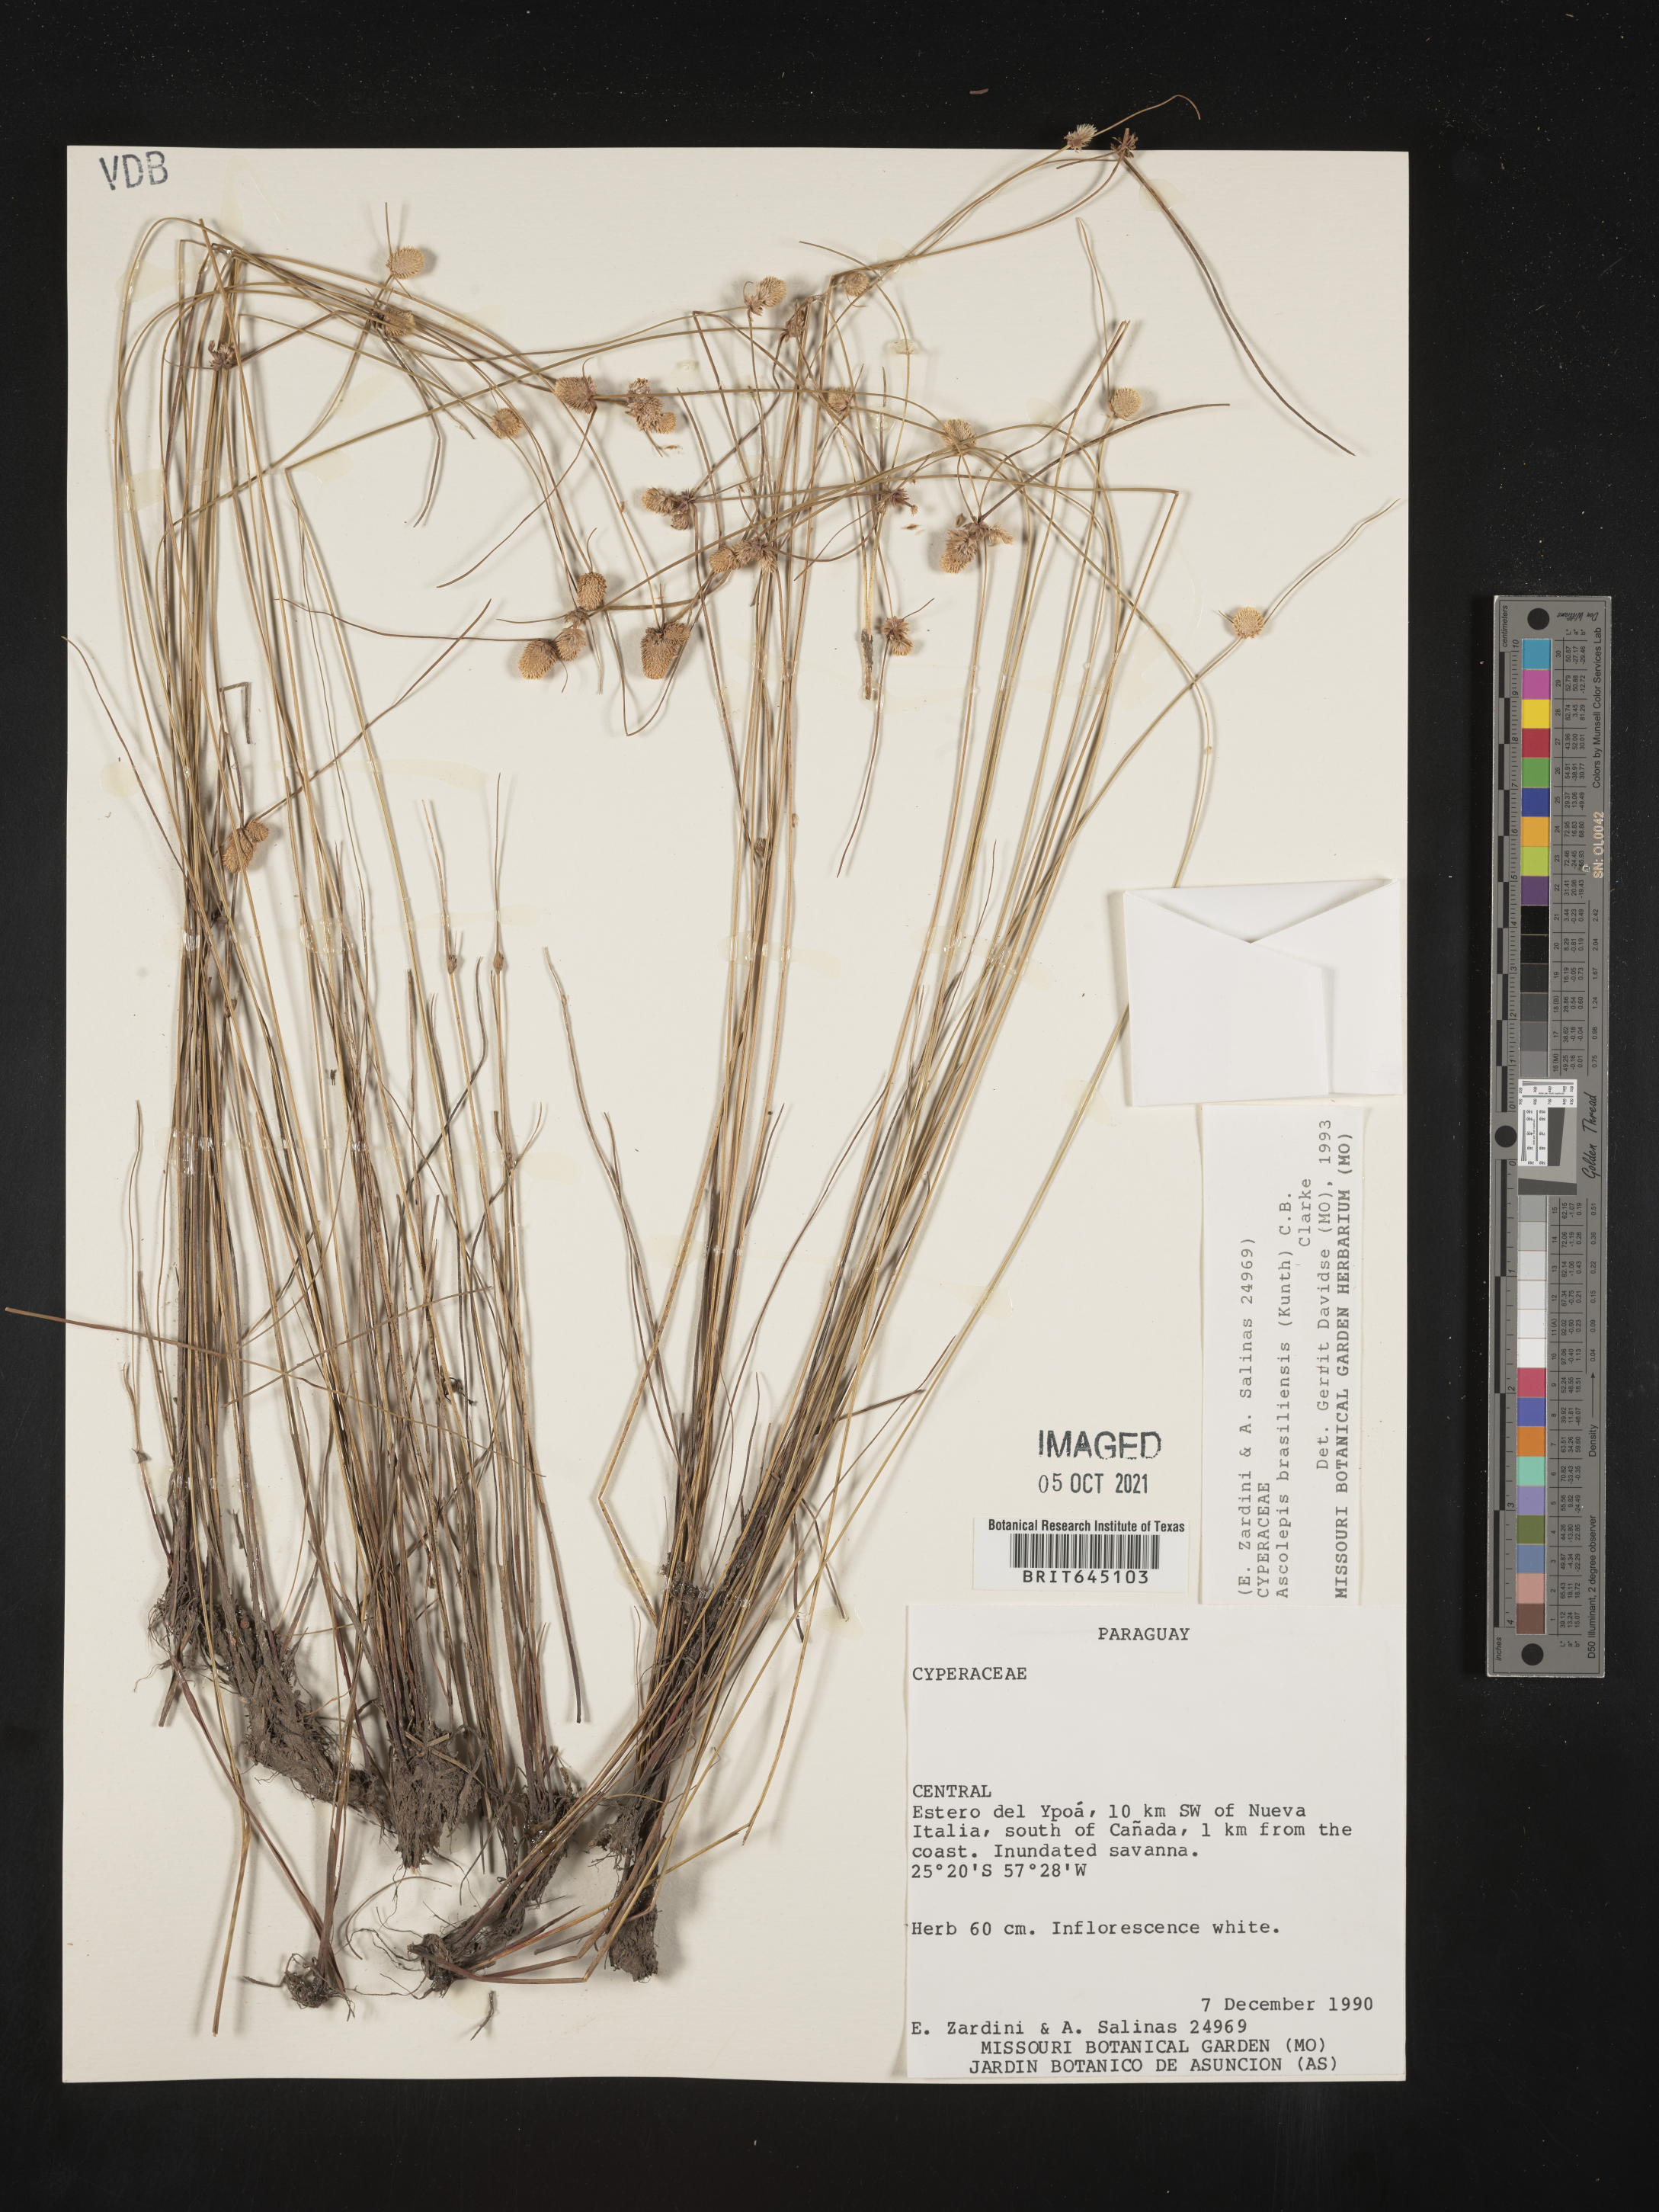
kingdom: Plantae
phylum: Tracheophyta
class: Liliopsida
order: Poales
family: Cyperaceae
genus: Cyperus
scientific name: Cyperus brasiliensis
